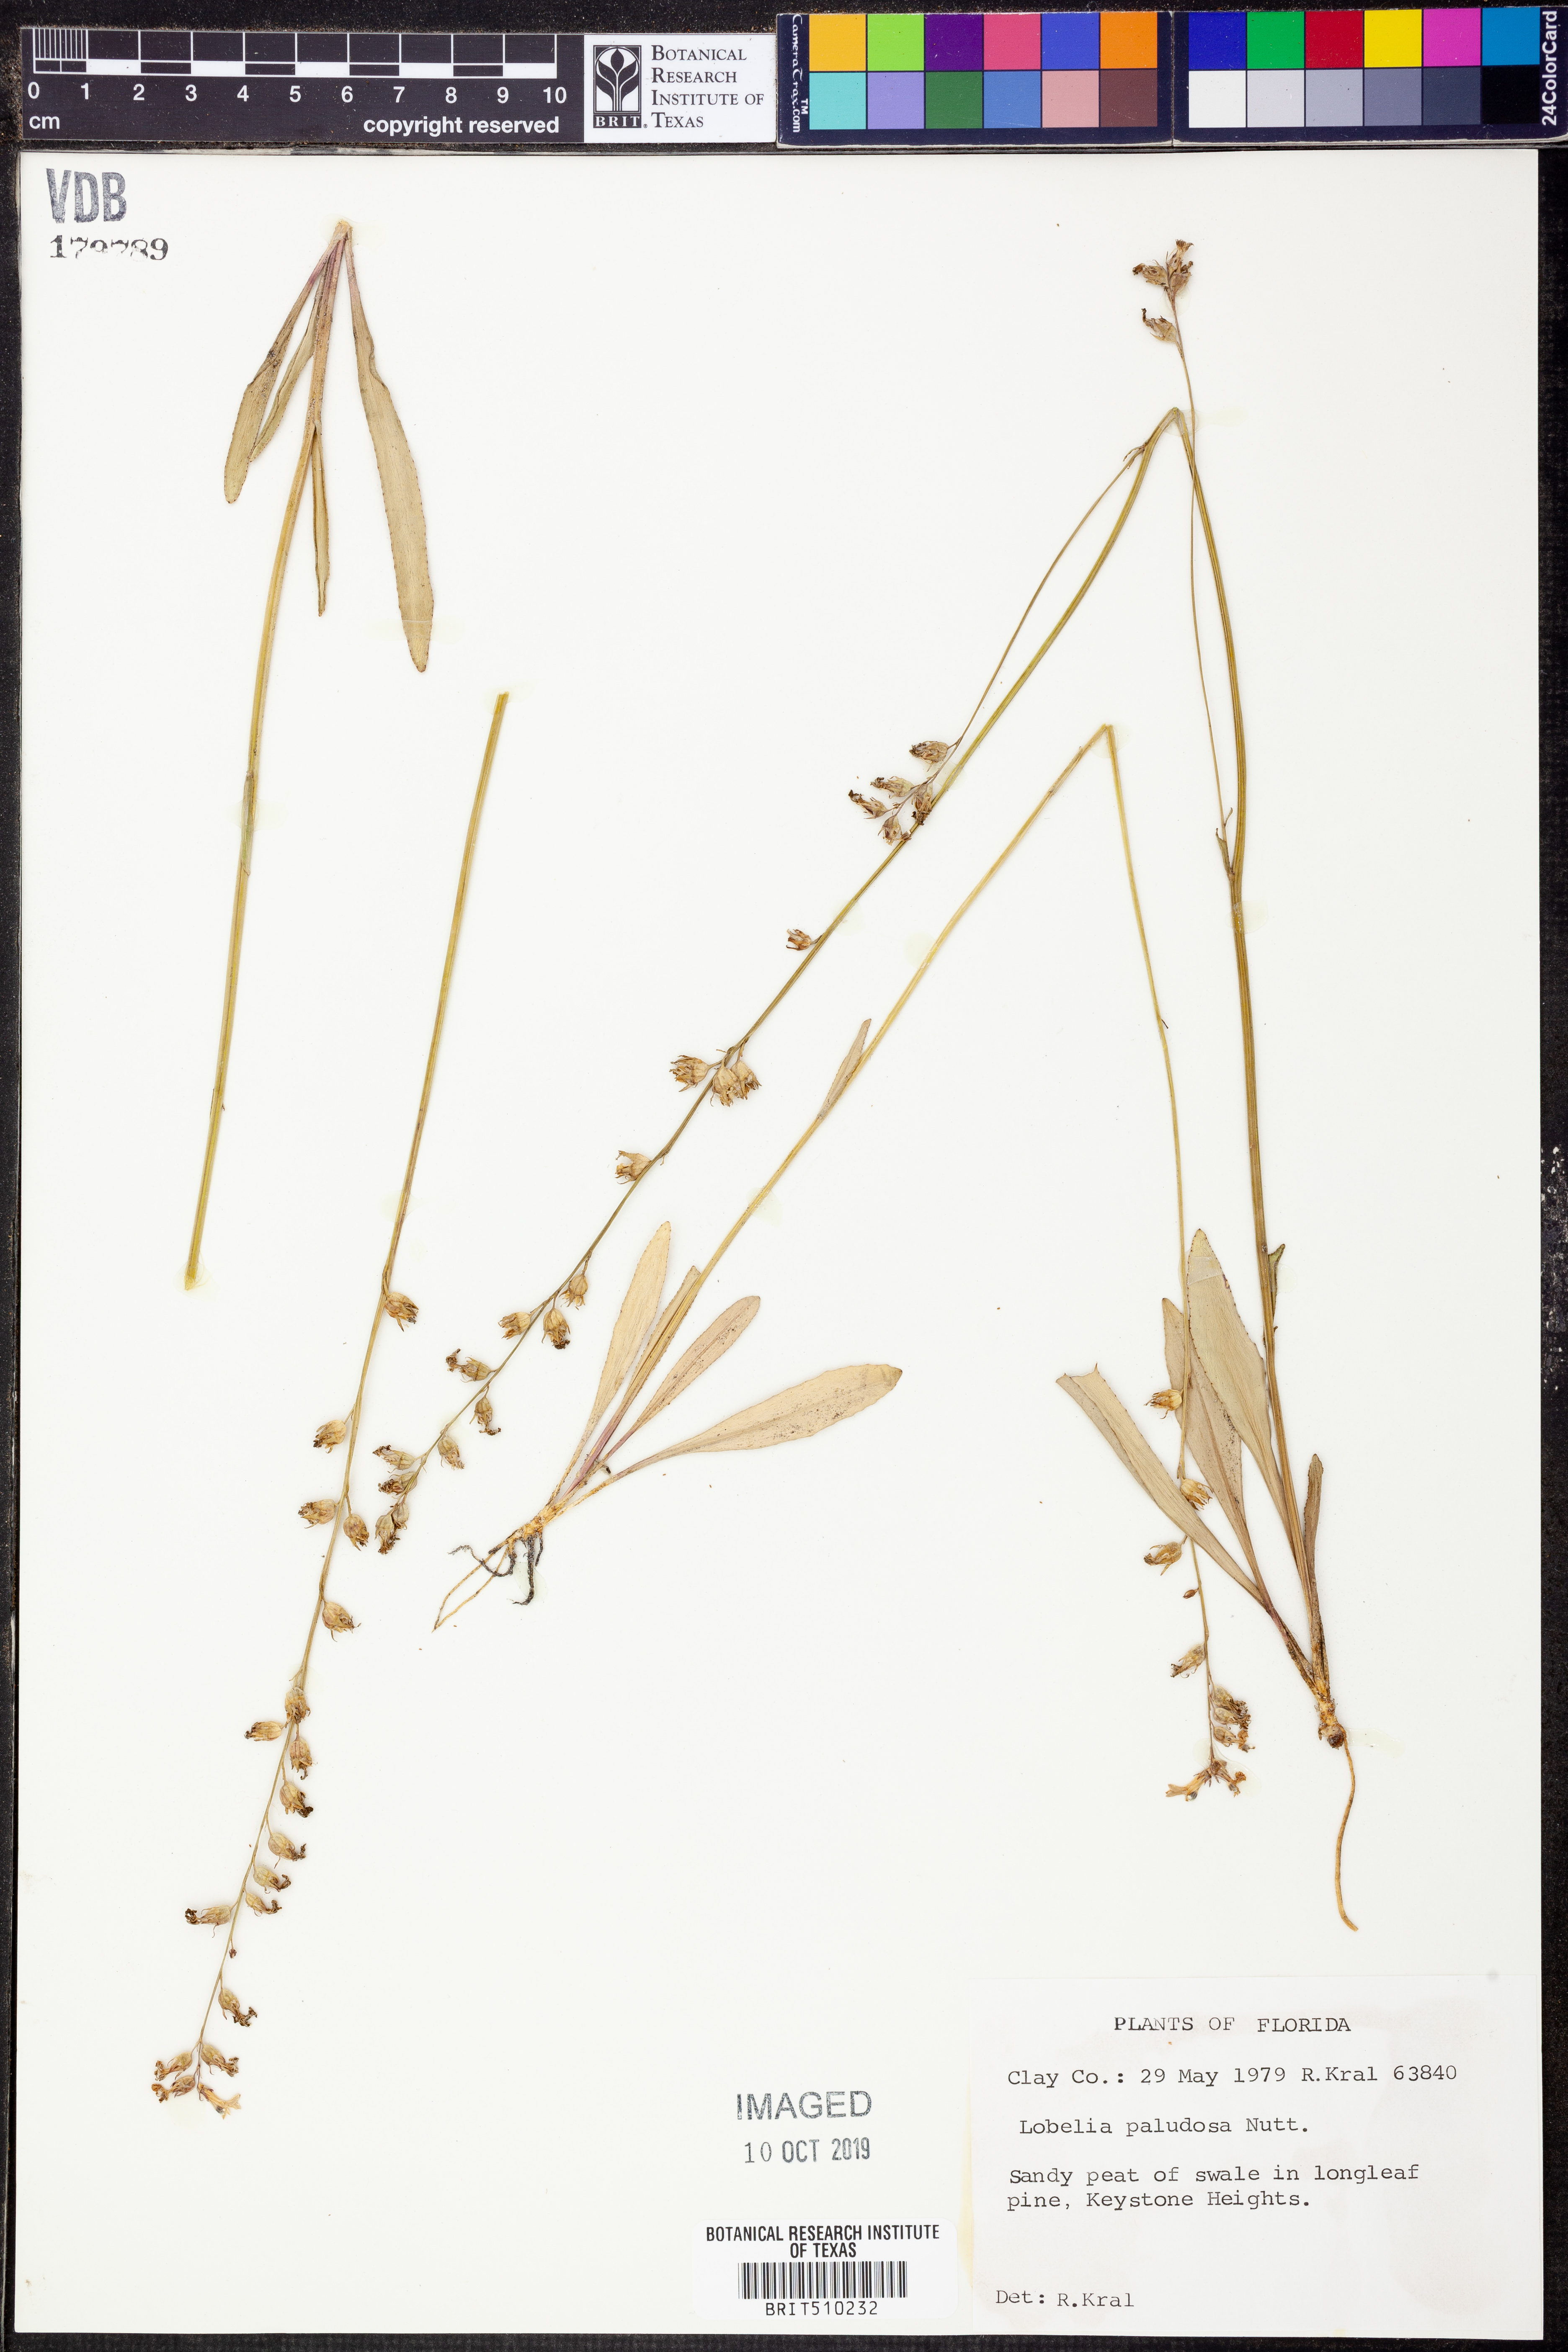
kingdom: Plantae
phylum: Tracheophyta
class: Magnoliopsida
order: Asterales
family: Campanulaceae
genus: Lobelia
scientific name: Lobelia paludosa
